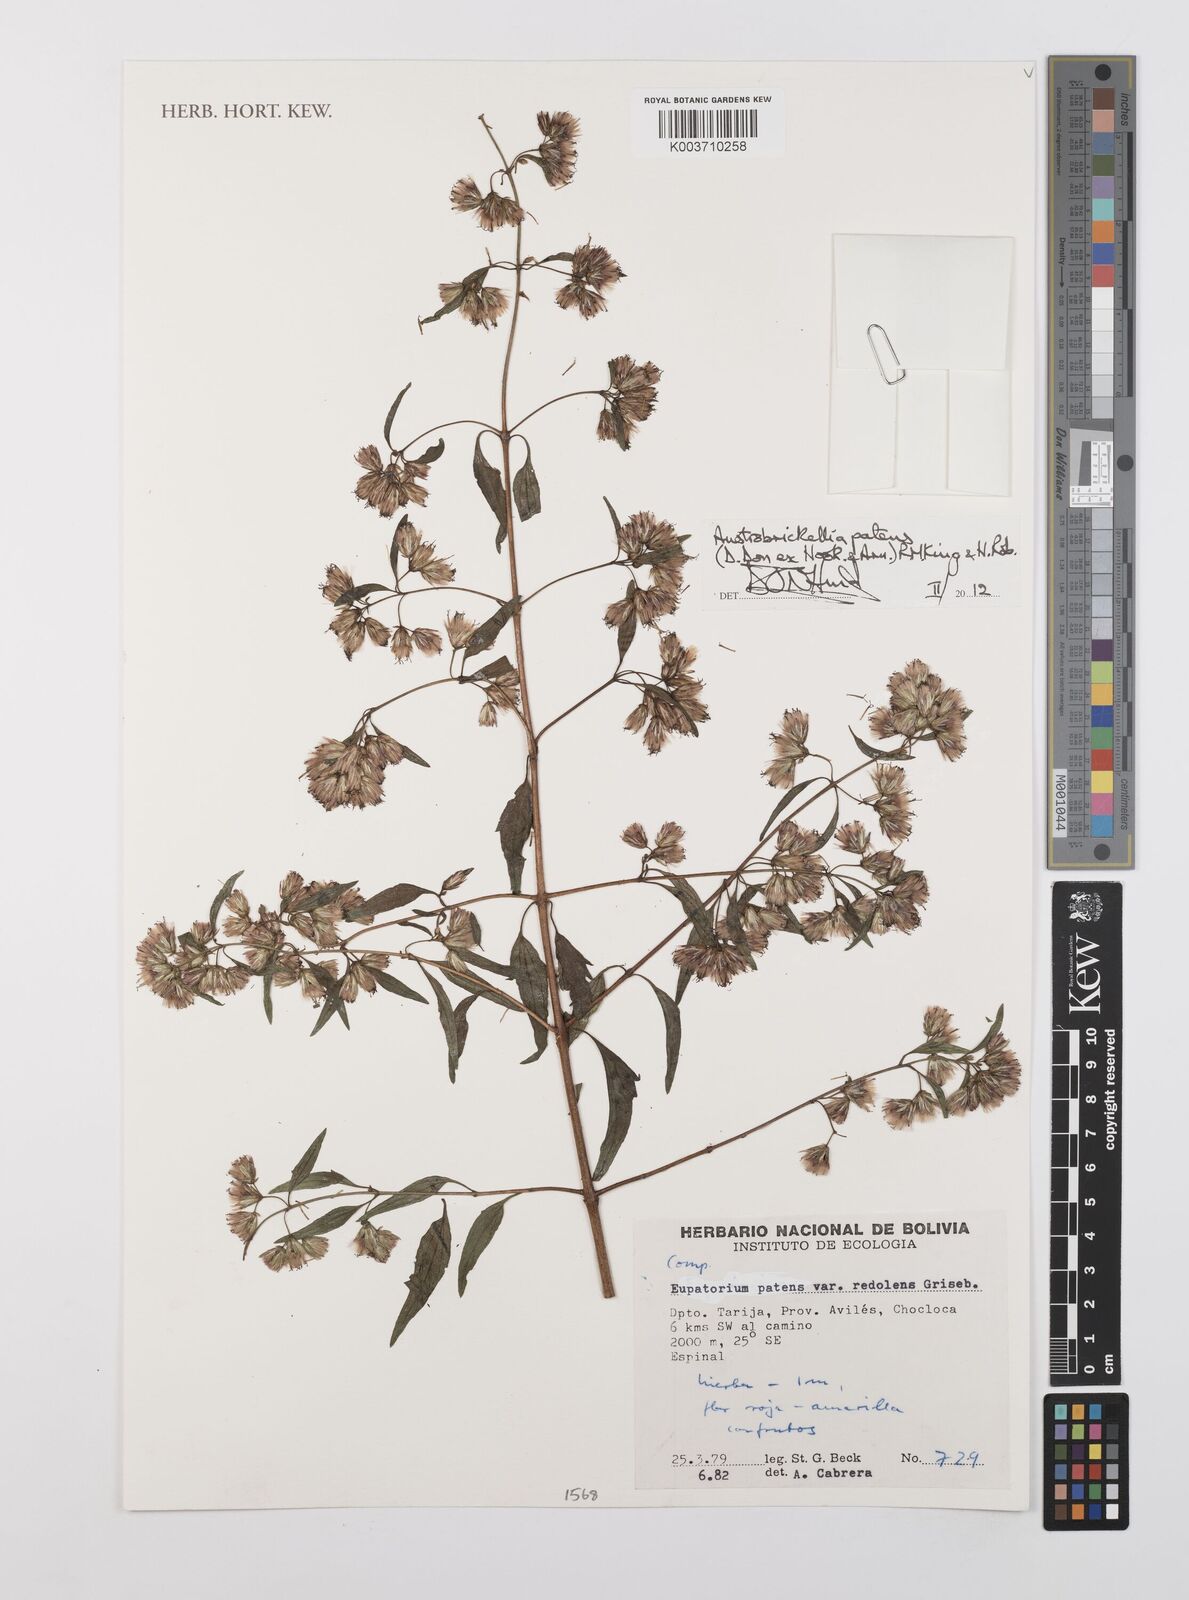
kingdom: Plantae
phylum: Tracheophyta
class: Magnoliopsida
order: Asterales
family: Asteraceae
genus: Austrobrickellia
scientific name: Austrobrickellia patens
